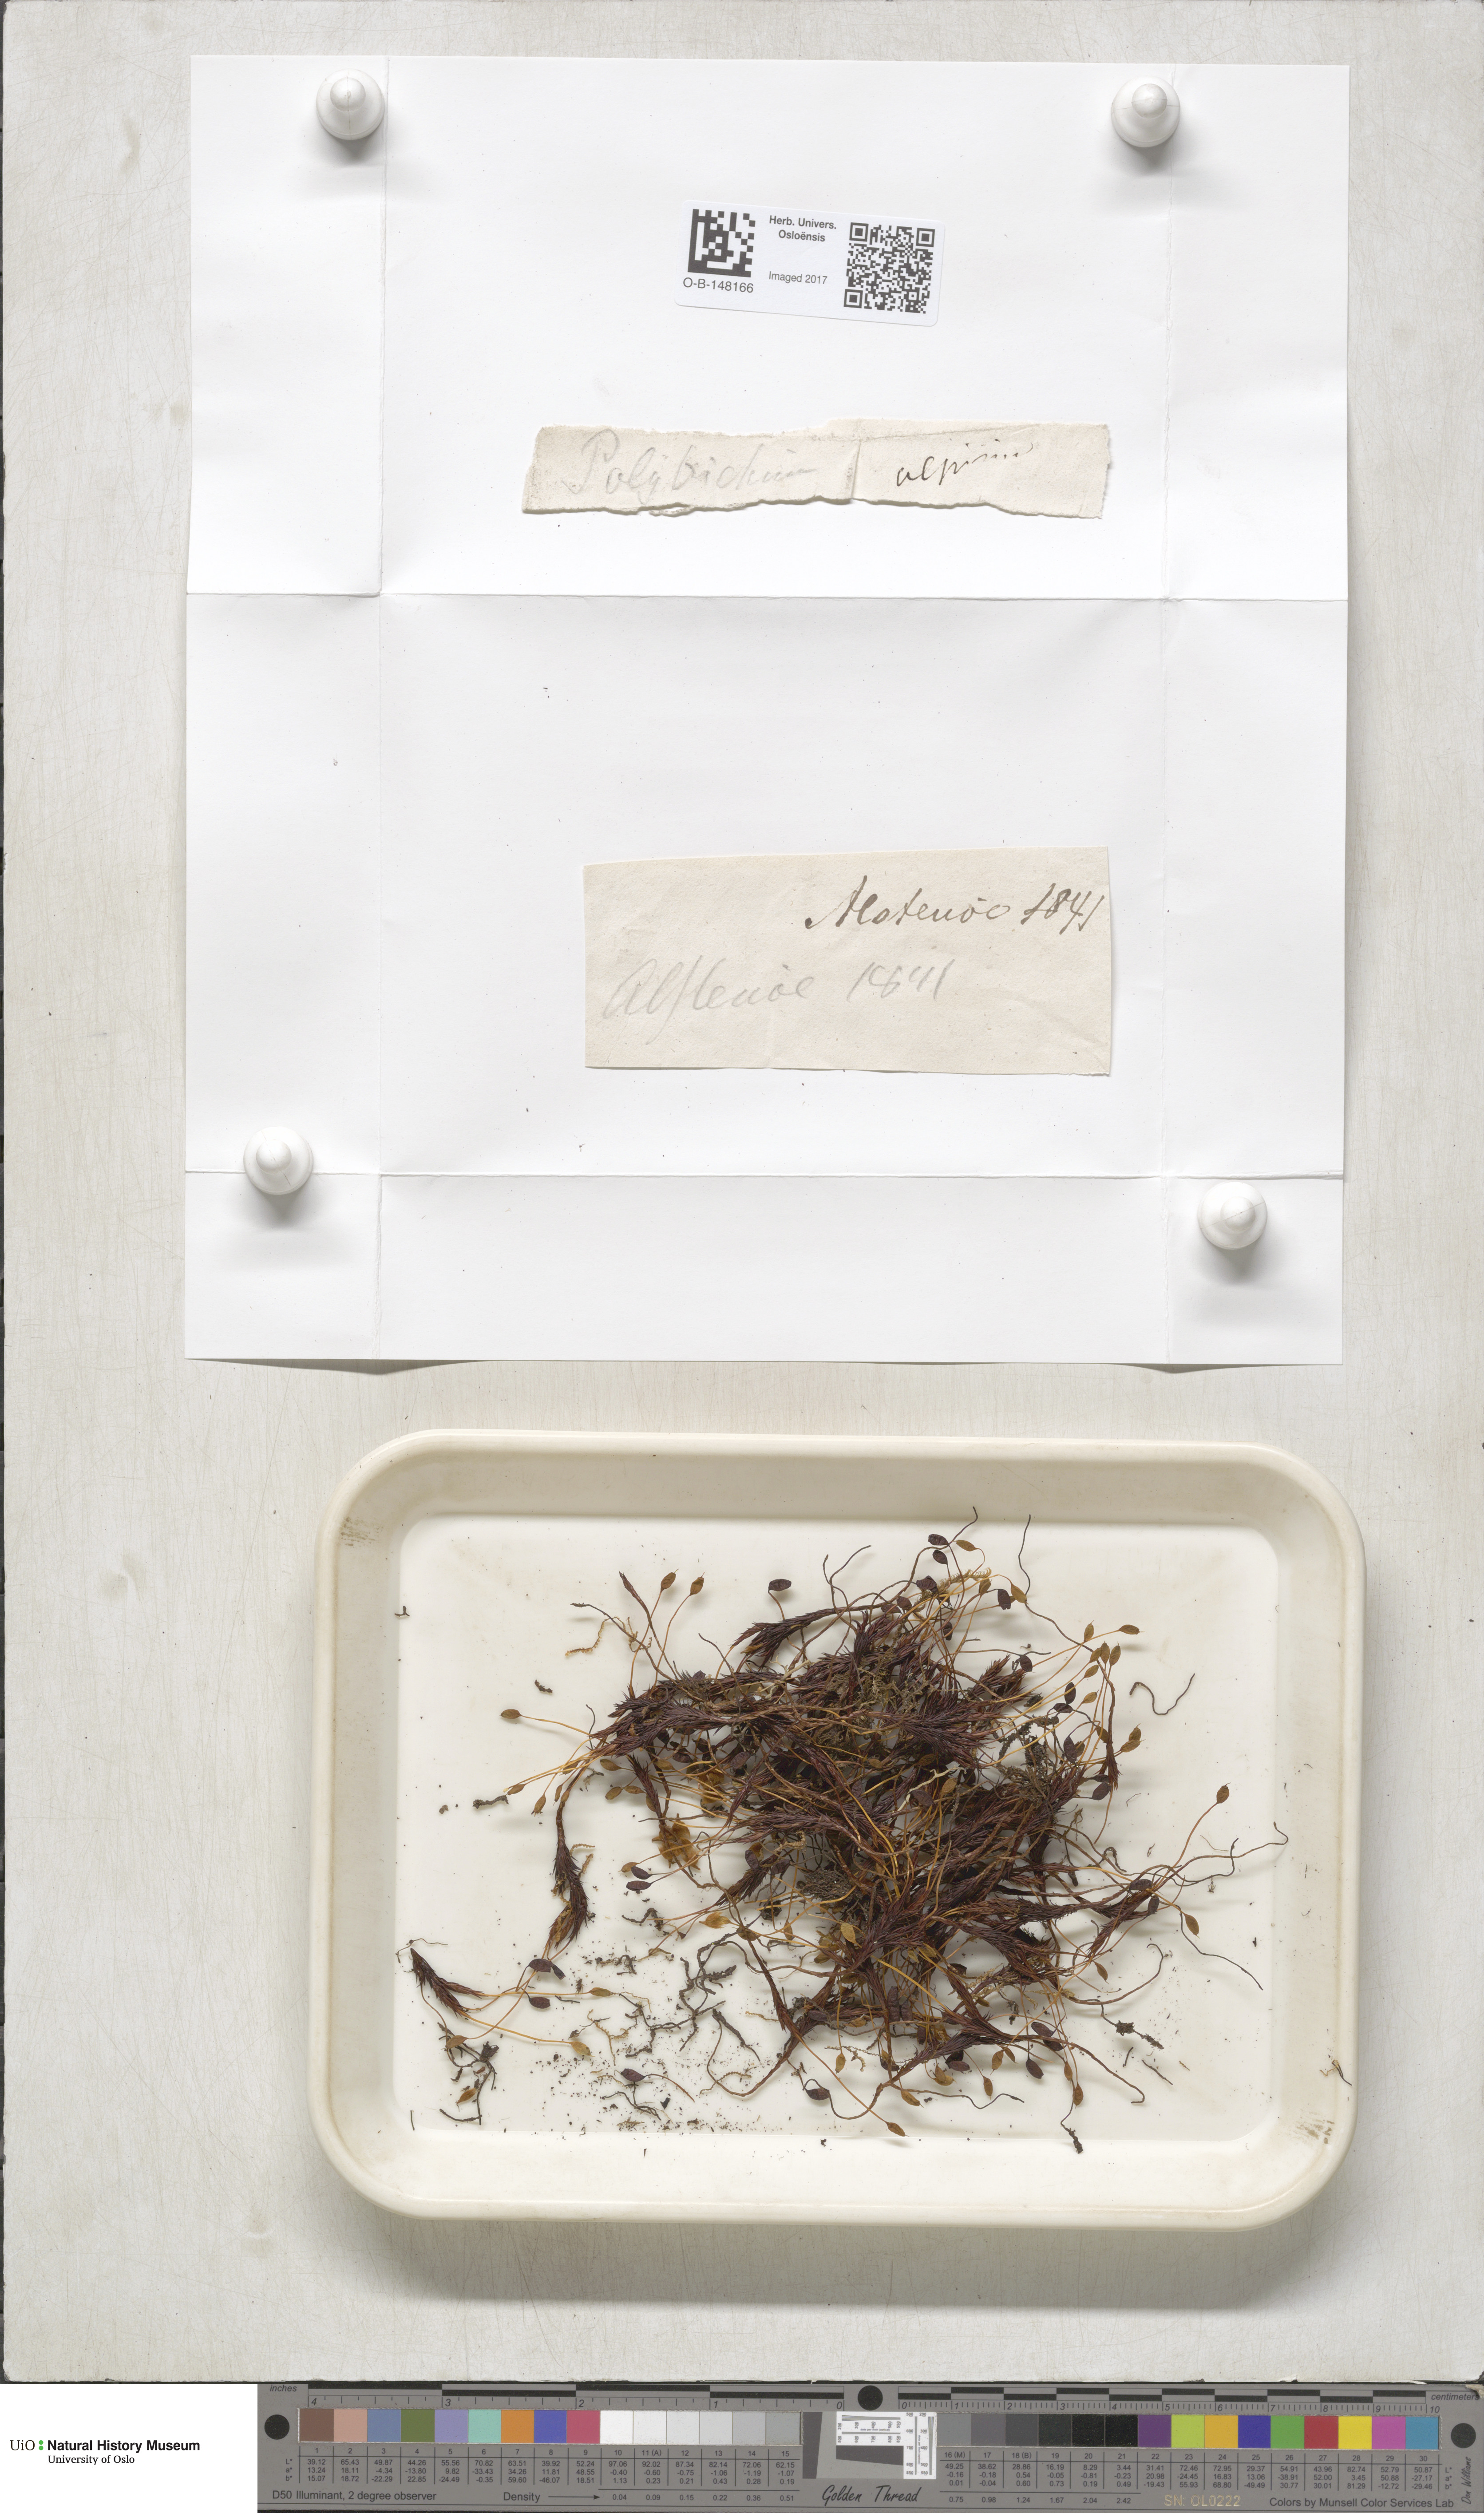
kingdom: Plantae
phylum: Bryophyta
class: Polytrichopsida
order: Polytrichales
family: Polytrichaceae
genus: Polytrichastrum
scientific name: Polytrichastrum alpinum
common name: Alpine haircap
